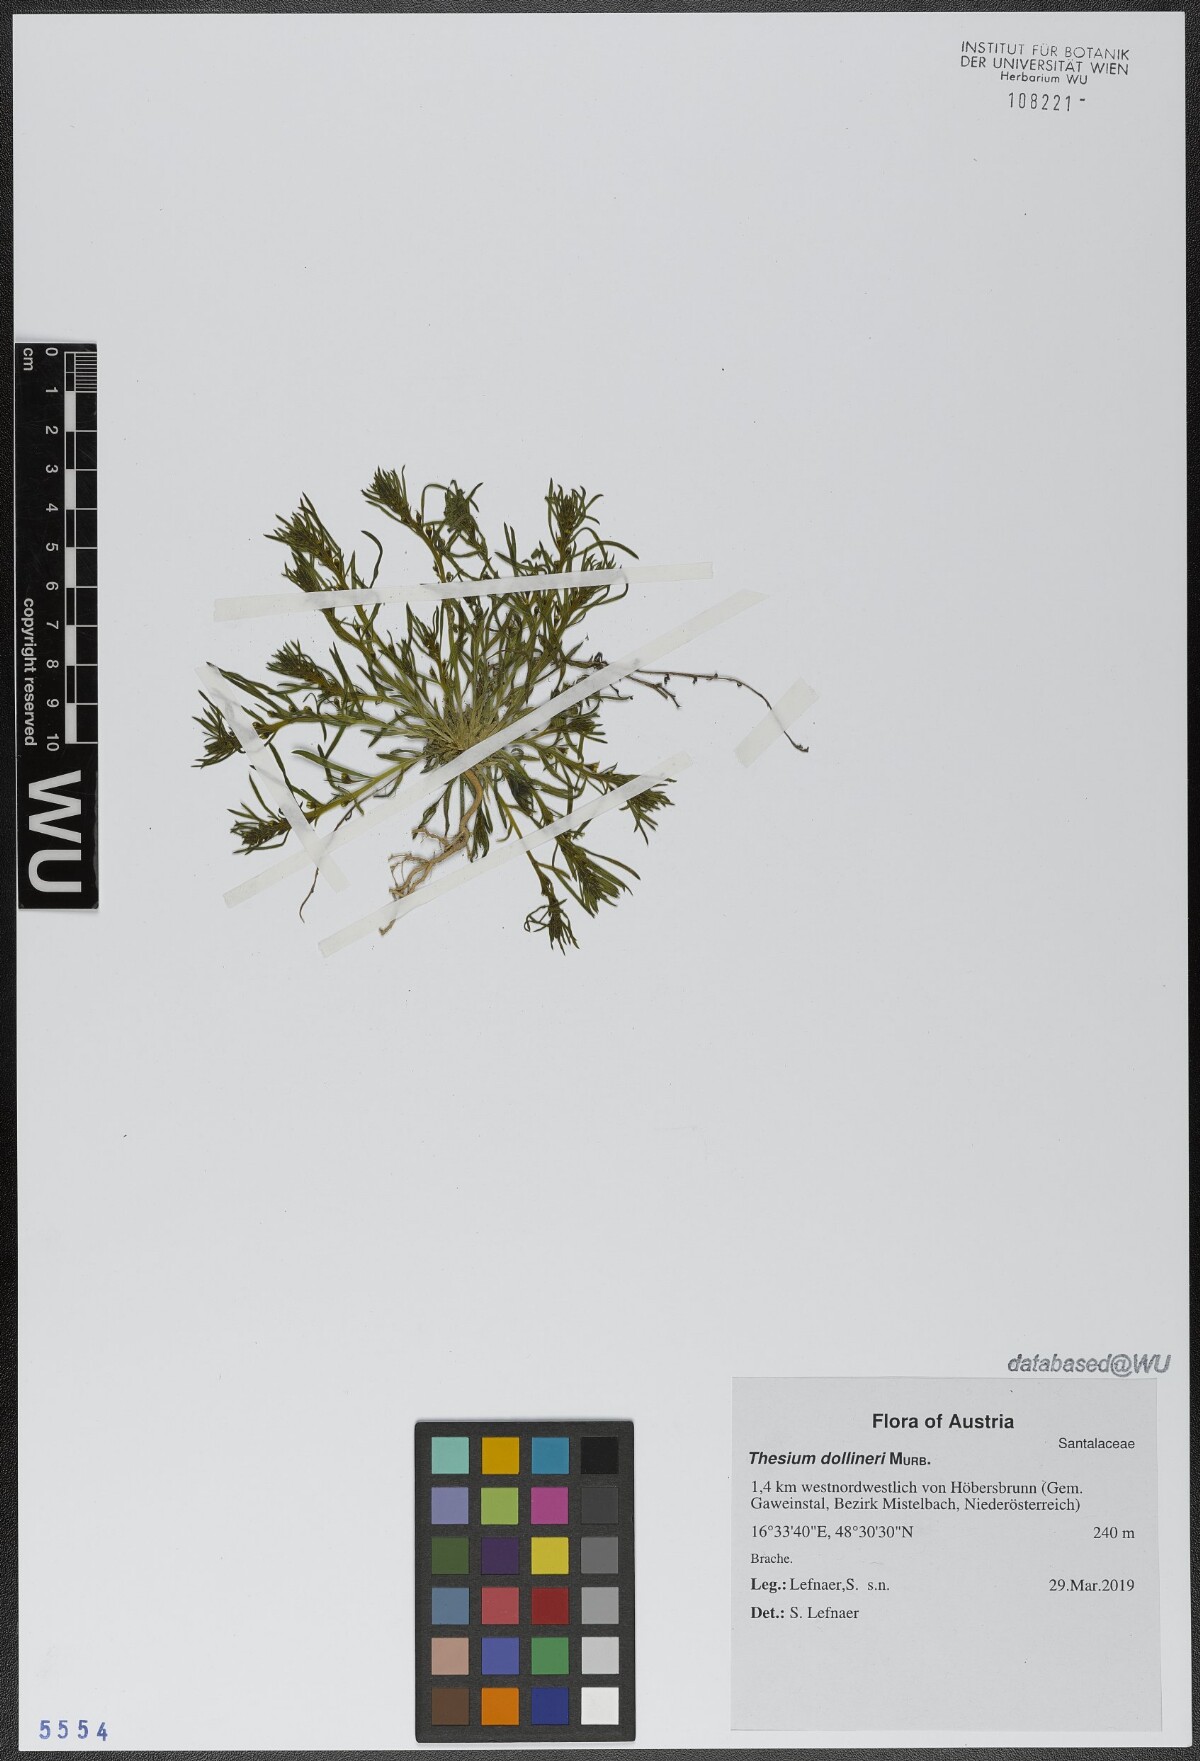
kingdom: Plantae
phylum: Tracheophyta
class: Magnoliopsida
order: Santalales
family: Thesiaceae
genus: Thesium
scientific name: Thesium dollineri
